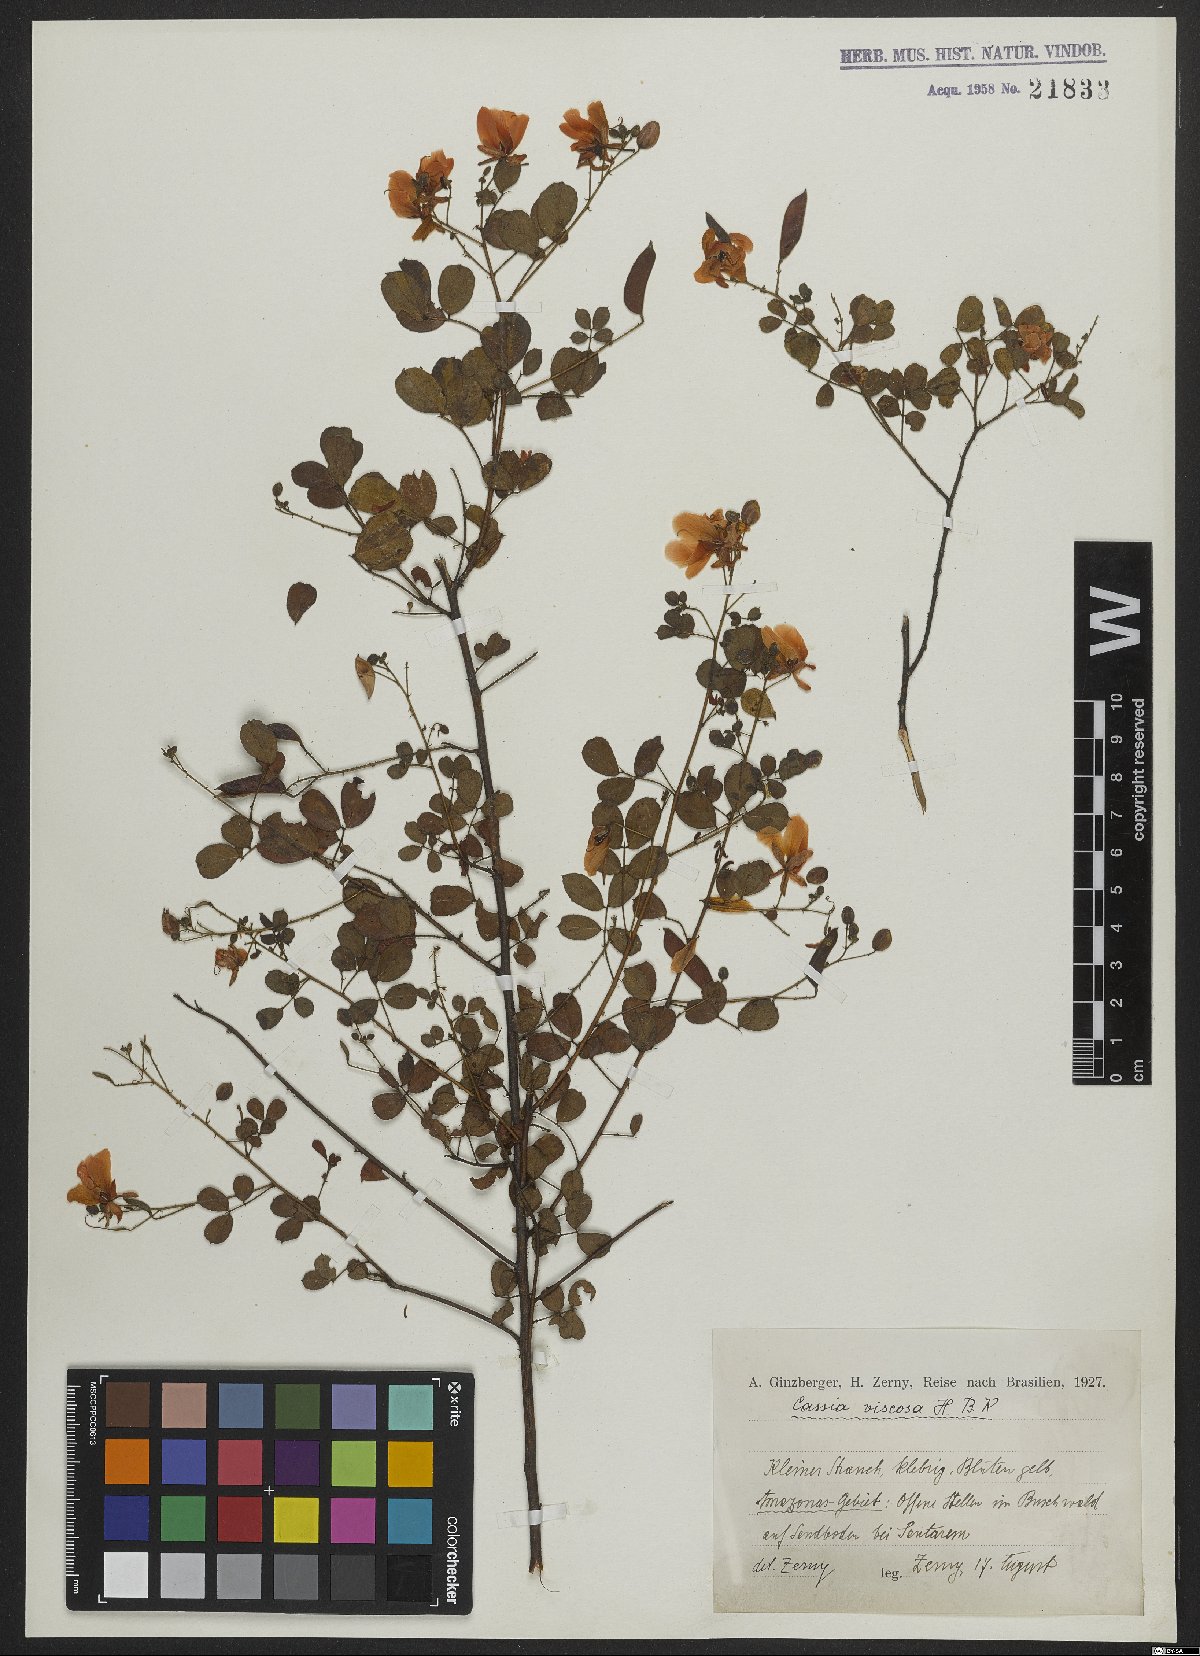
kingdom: Plantae
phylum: Tracheophyta
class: Magnoliopsida
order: Fabales
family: Fabaceae
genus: Chamaecrista
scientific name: Chamaecrista viscosa
